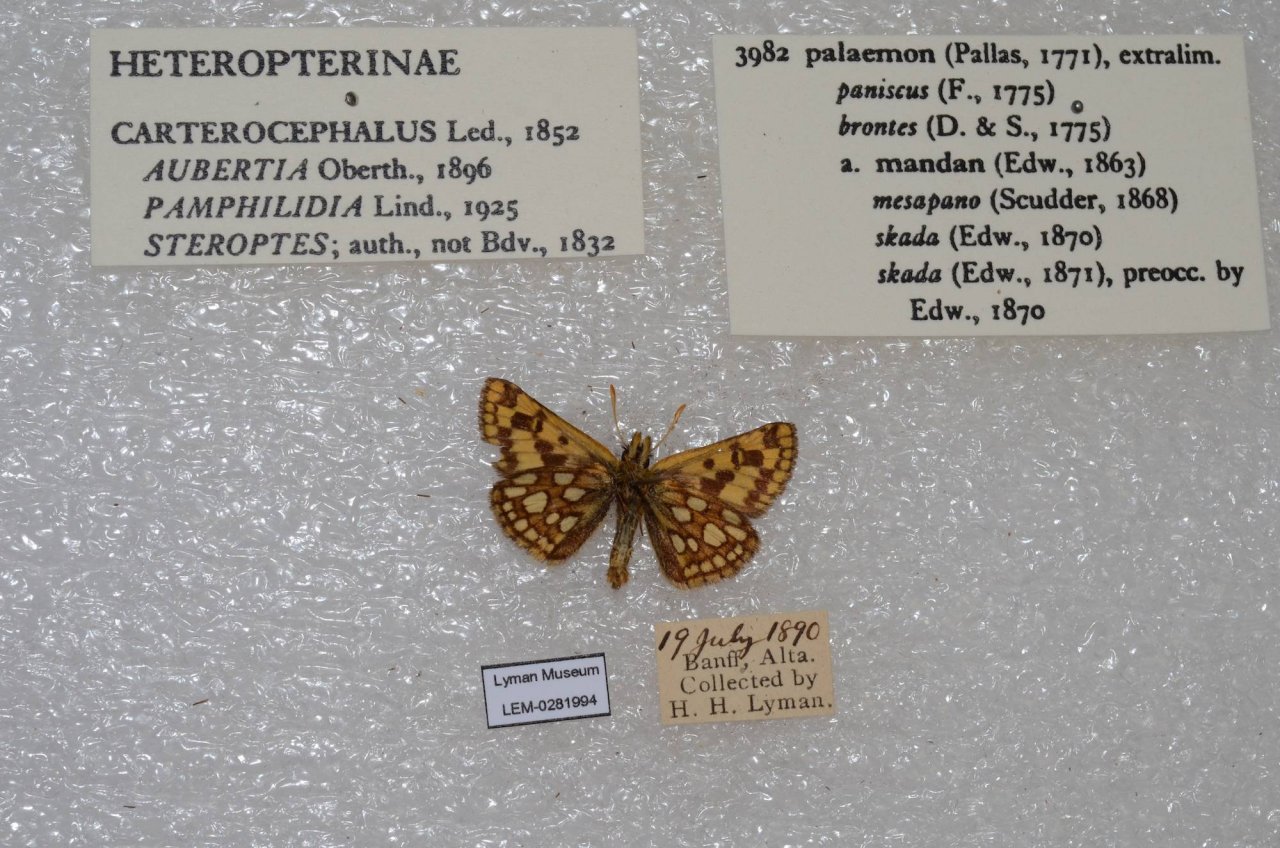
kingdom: Animalia
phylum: Arthropoda
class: Insecta
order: Lepidoptera
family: Hesperiidae
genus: Carterocephalus
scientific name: Carterocephalus palaemon
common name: Chequered Skipper
